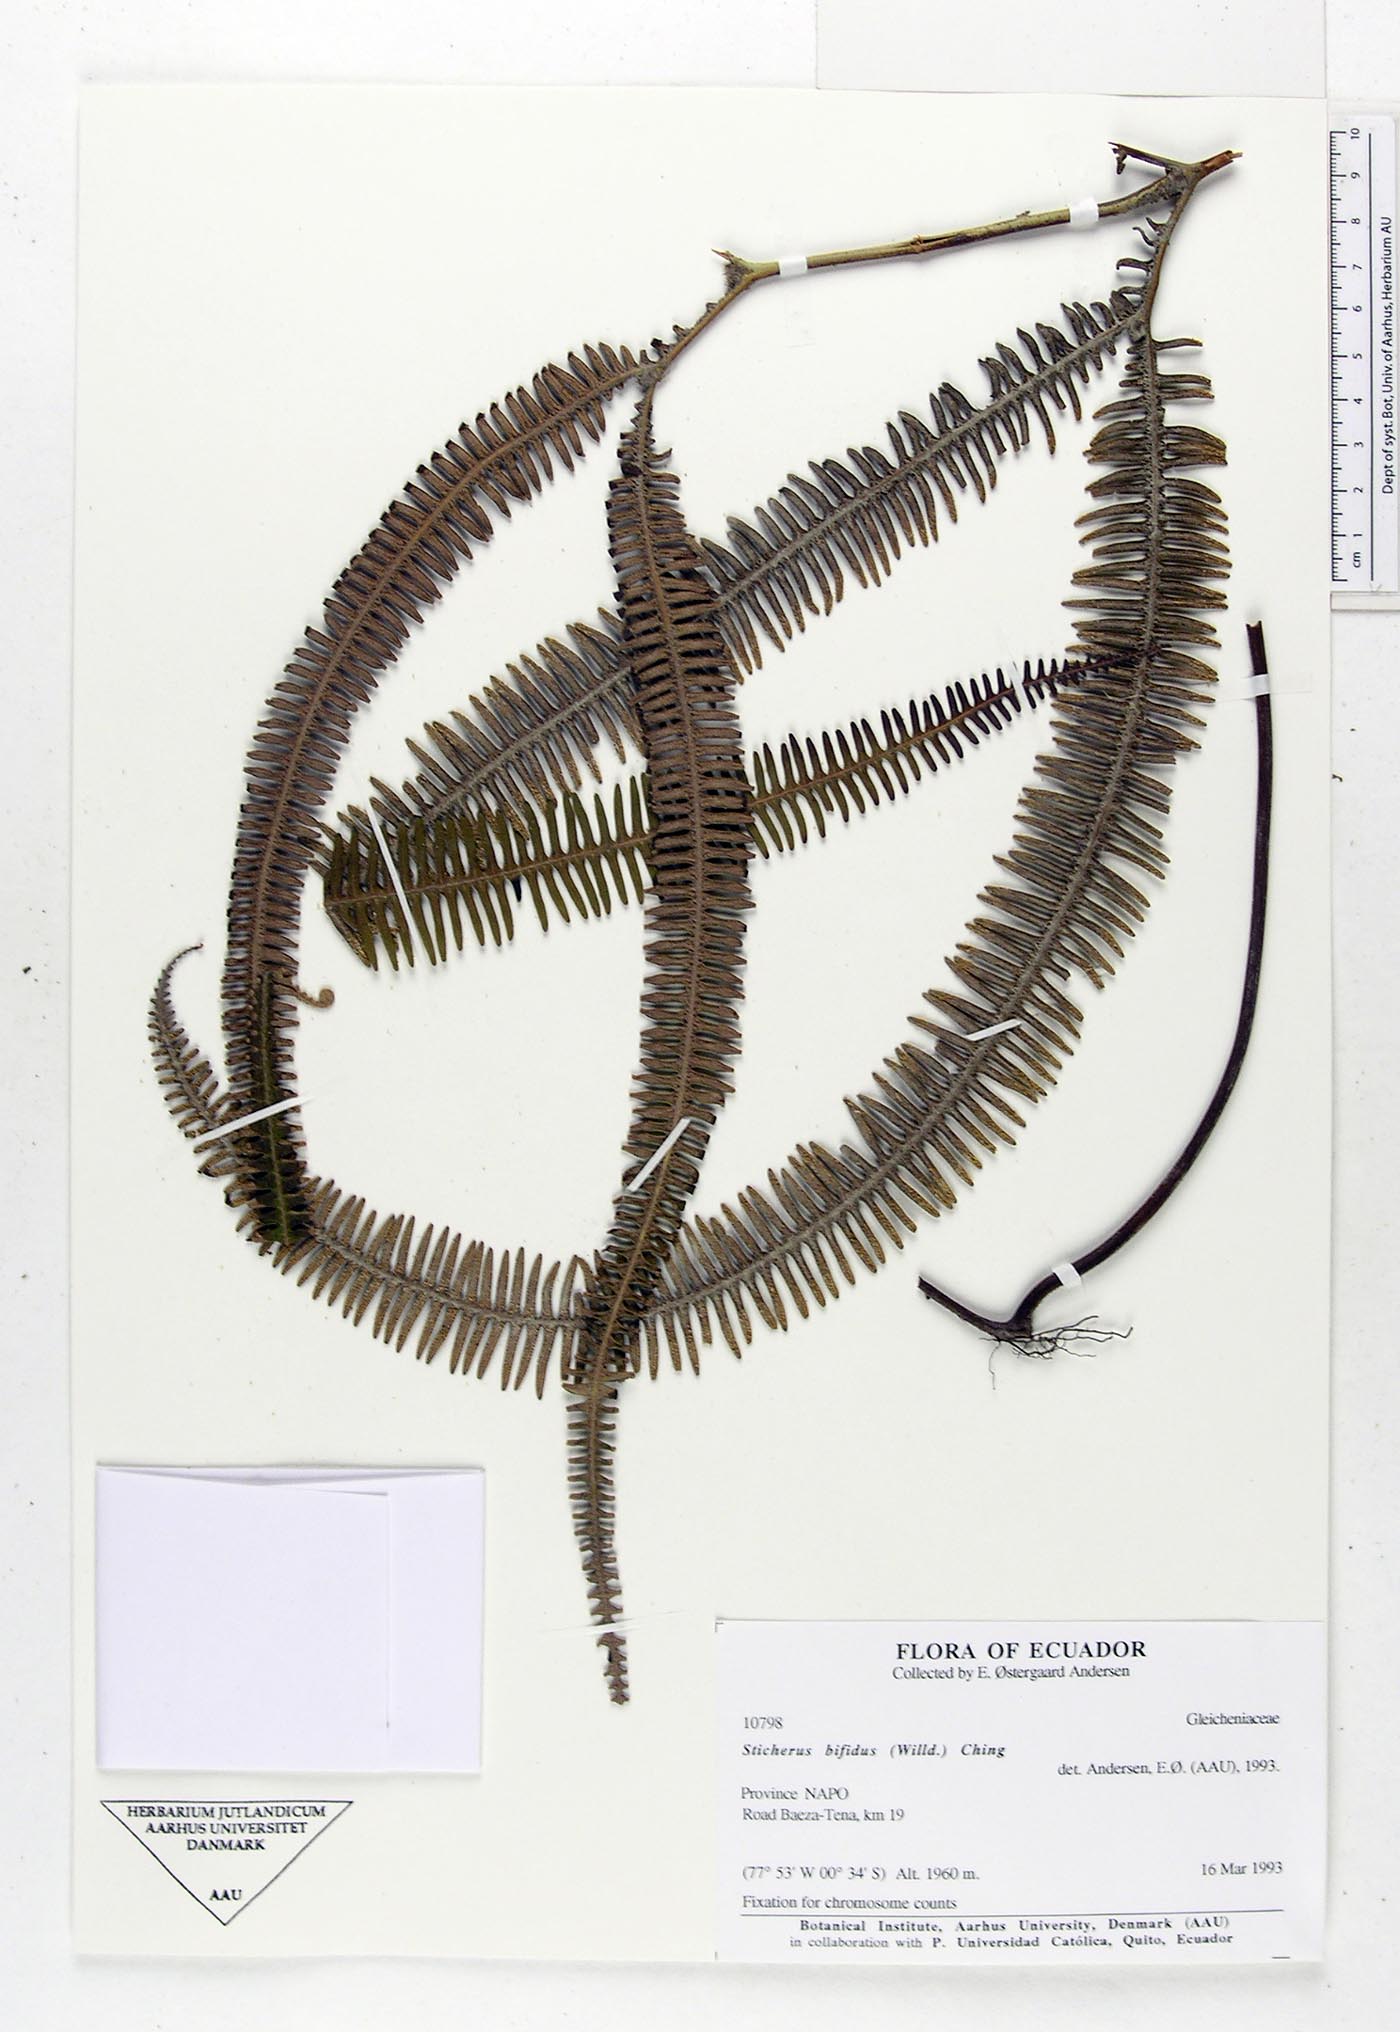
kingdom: Plantae
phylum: Tracheophyta
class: Polypodiopsida
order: Gleicheniales
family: Gleicheniaceae
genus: Sticherus
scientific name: Sticherus bifidus
